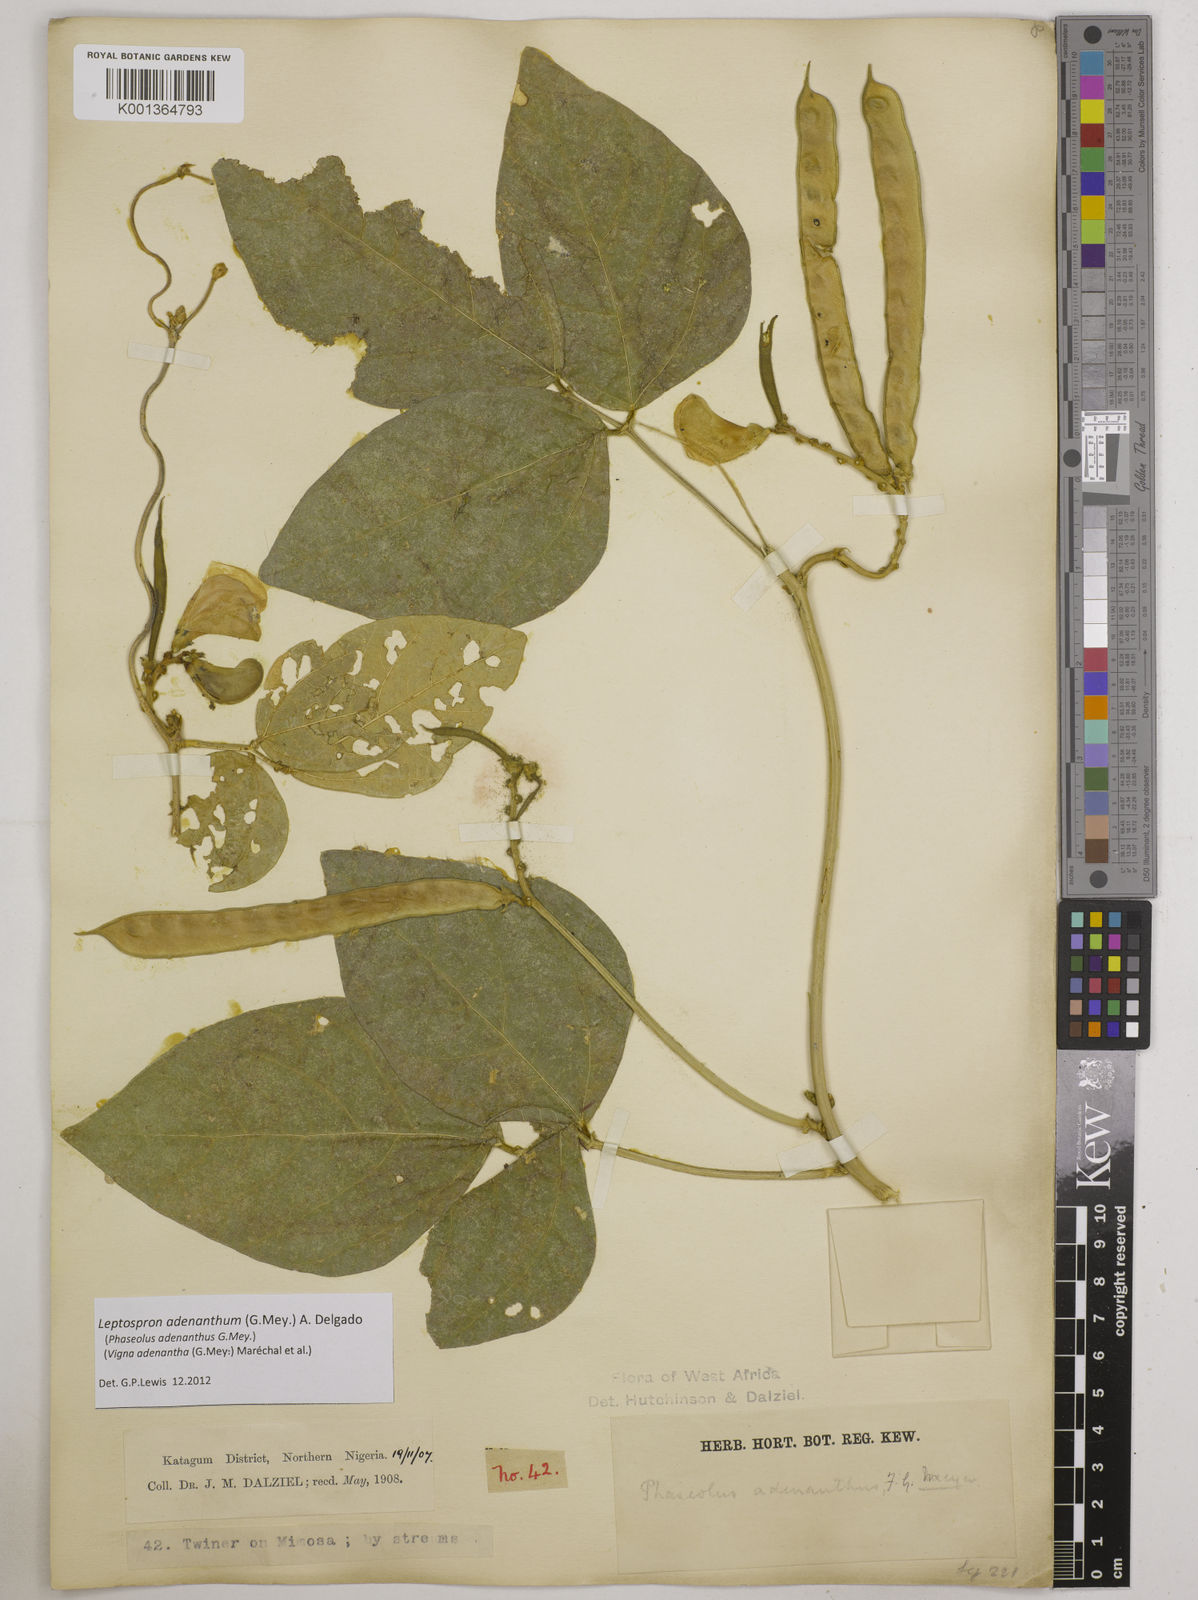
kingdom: Plantae
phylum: Tracheophyta
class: Magnoliopsida
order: Fabales
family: Fabaceae
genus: Leptospron
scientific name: Leptospron adenanthum
